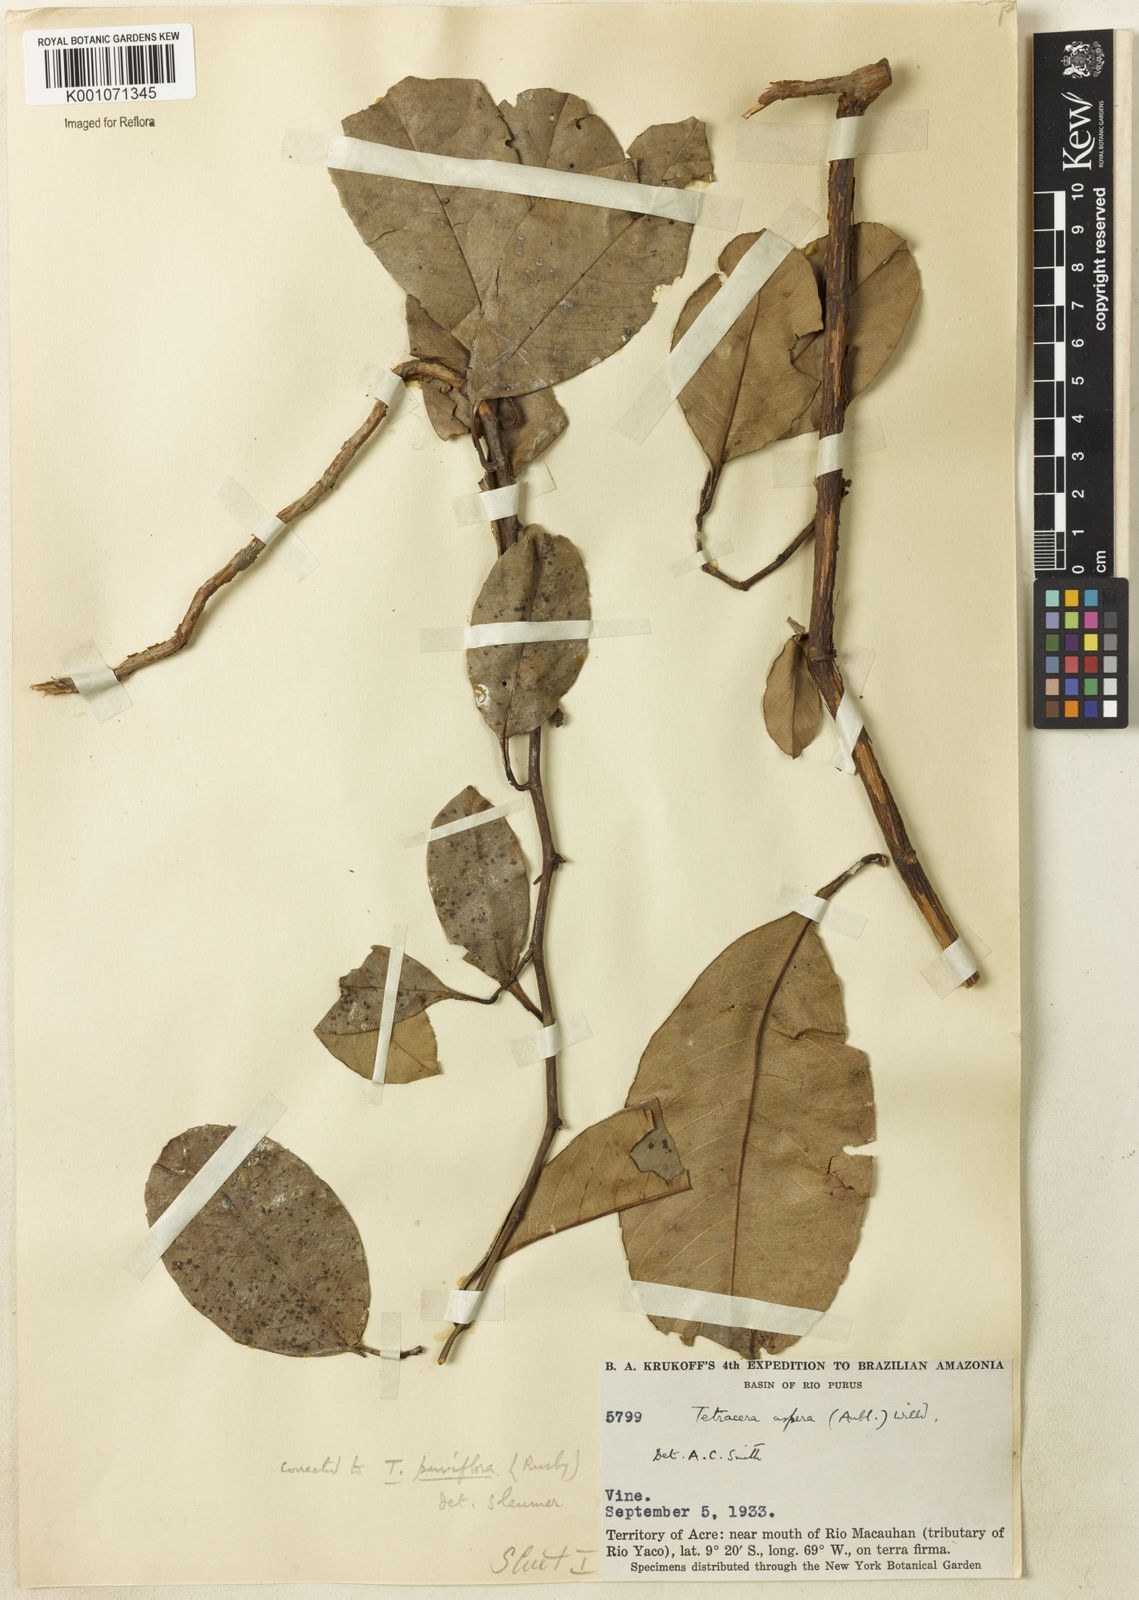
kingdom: Plantae
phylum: Tracheophyta
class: Magnoliopsida
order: Dilleniales
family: Dilleniaceae
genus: Tetracera
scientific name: Tetracera parviflora
